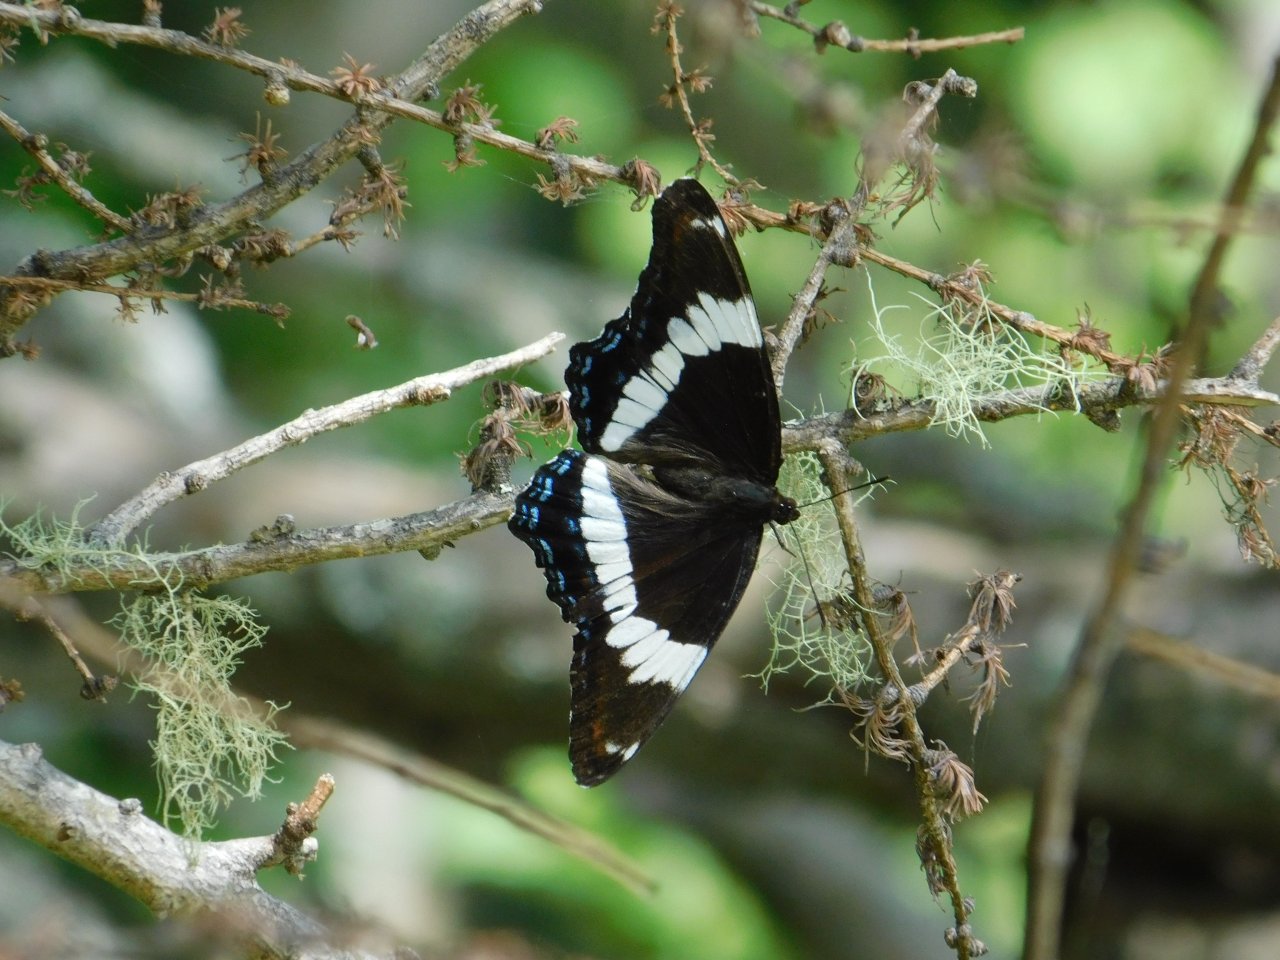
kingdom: Animalia
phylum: Arthropoda
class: Insecta
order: Lepidoptera
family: Nymphalidae
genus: Limenitis
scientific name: Limenitis arthemis
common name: Red-spotted Admiral
